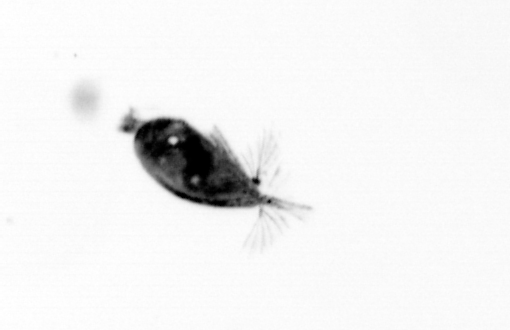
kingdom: Animalia
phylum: Arthropoda
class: Maxillopoda
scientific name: Maxillopoda
